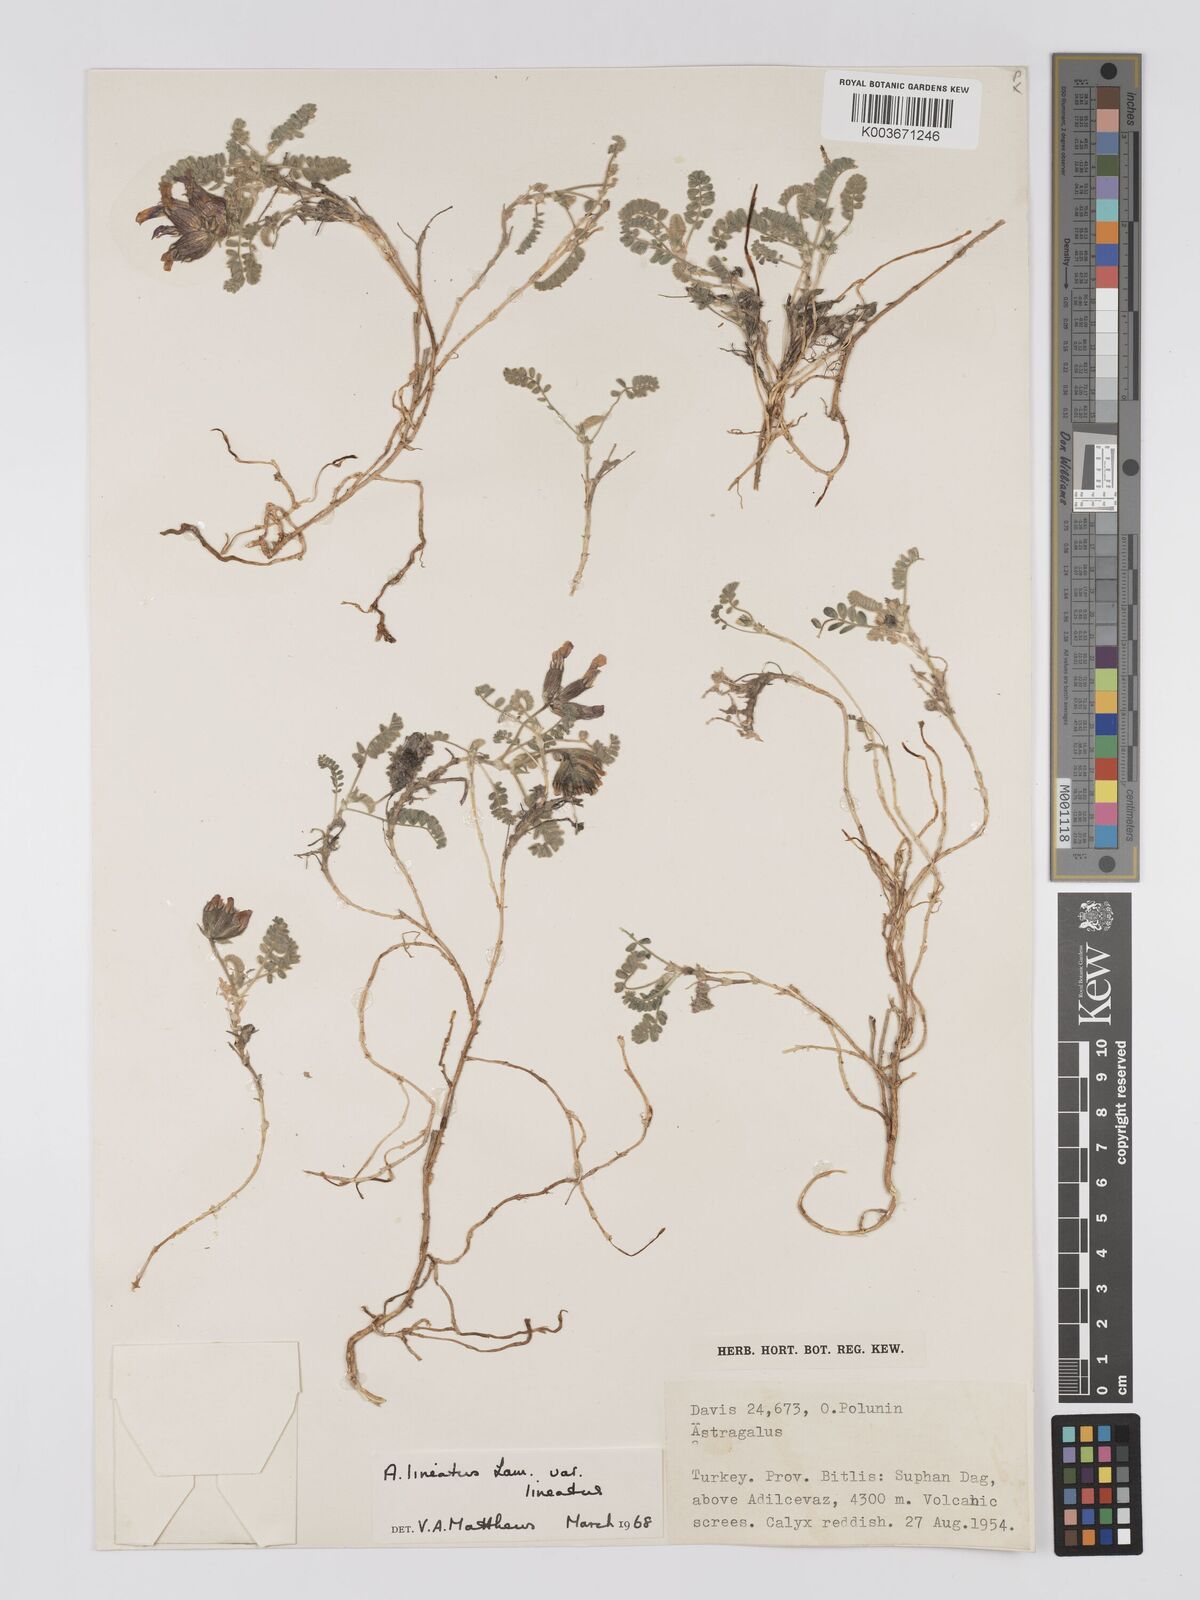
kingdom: Plantae
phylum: Tracheophyta
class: Magnoliopsida
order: Fabales
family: Fabaceae
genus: Astragalus
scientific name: Astragalus lineatus
